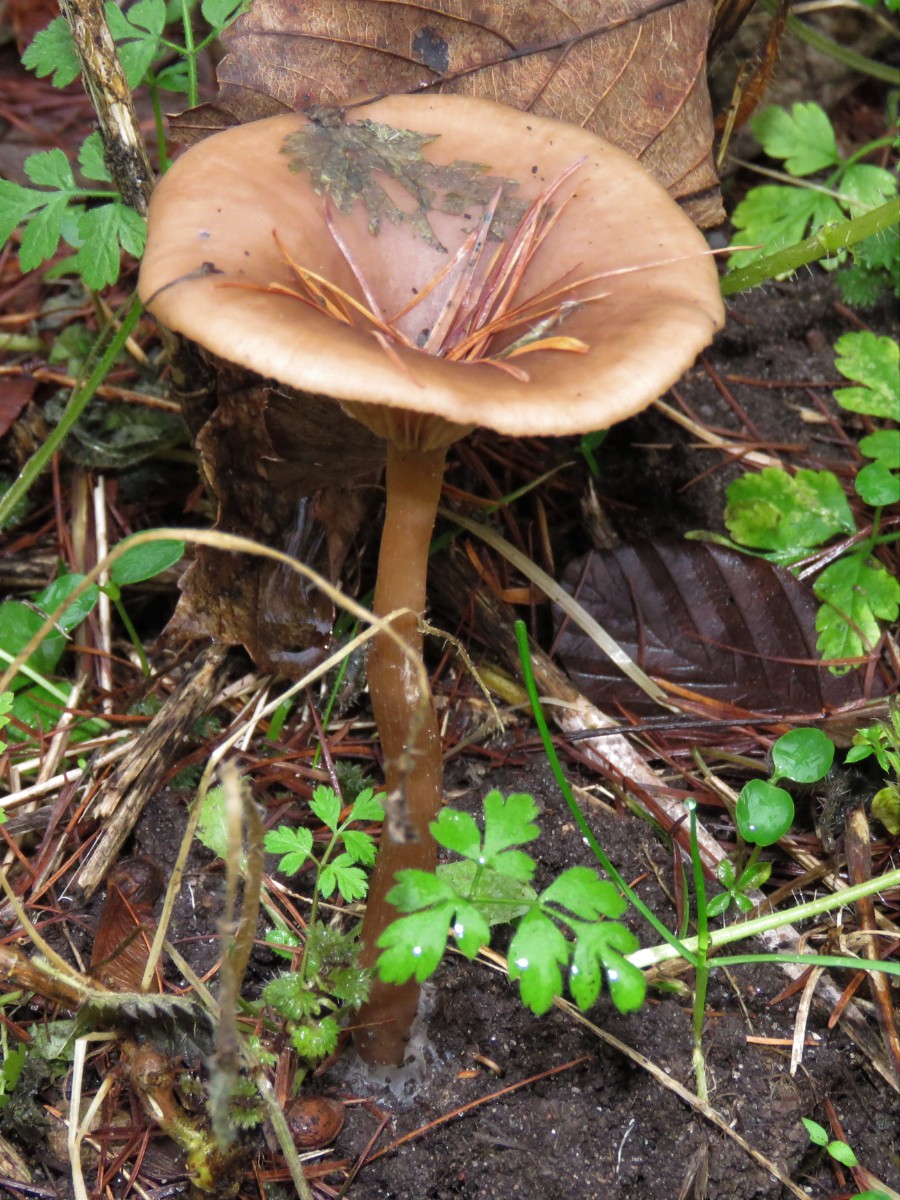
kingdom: Fungi
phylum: Basidiomycota
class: Agaricomycetes
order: Agaricales
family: Pseudoclitocybaceae
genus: Pseudoclitocybe
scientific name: Pseudoclitocybe cyathiformis
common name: almindelig bægertragthat
